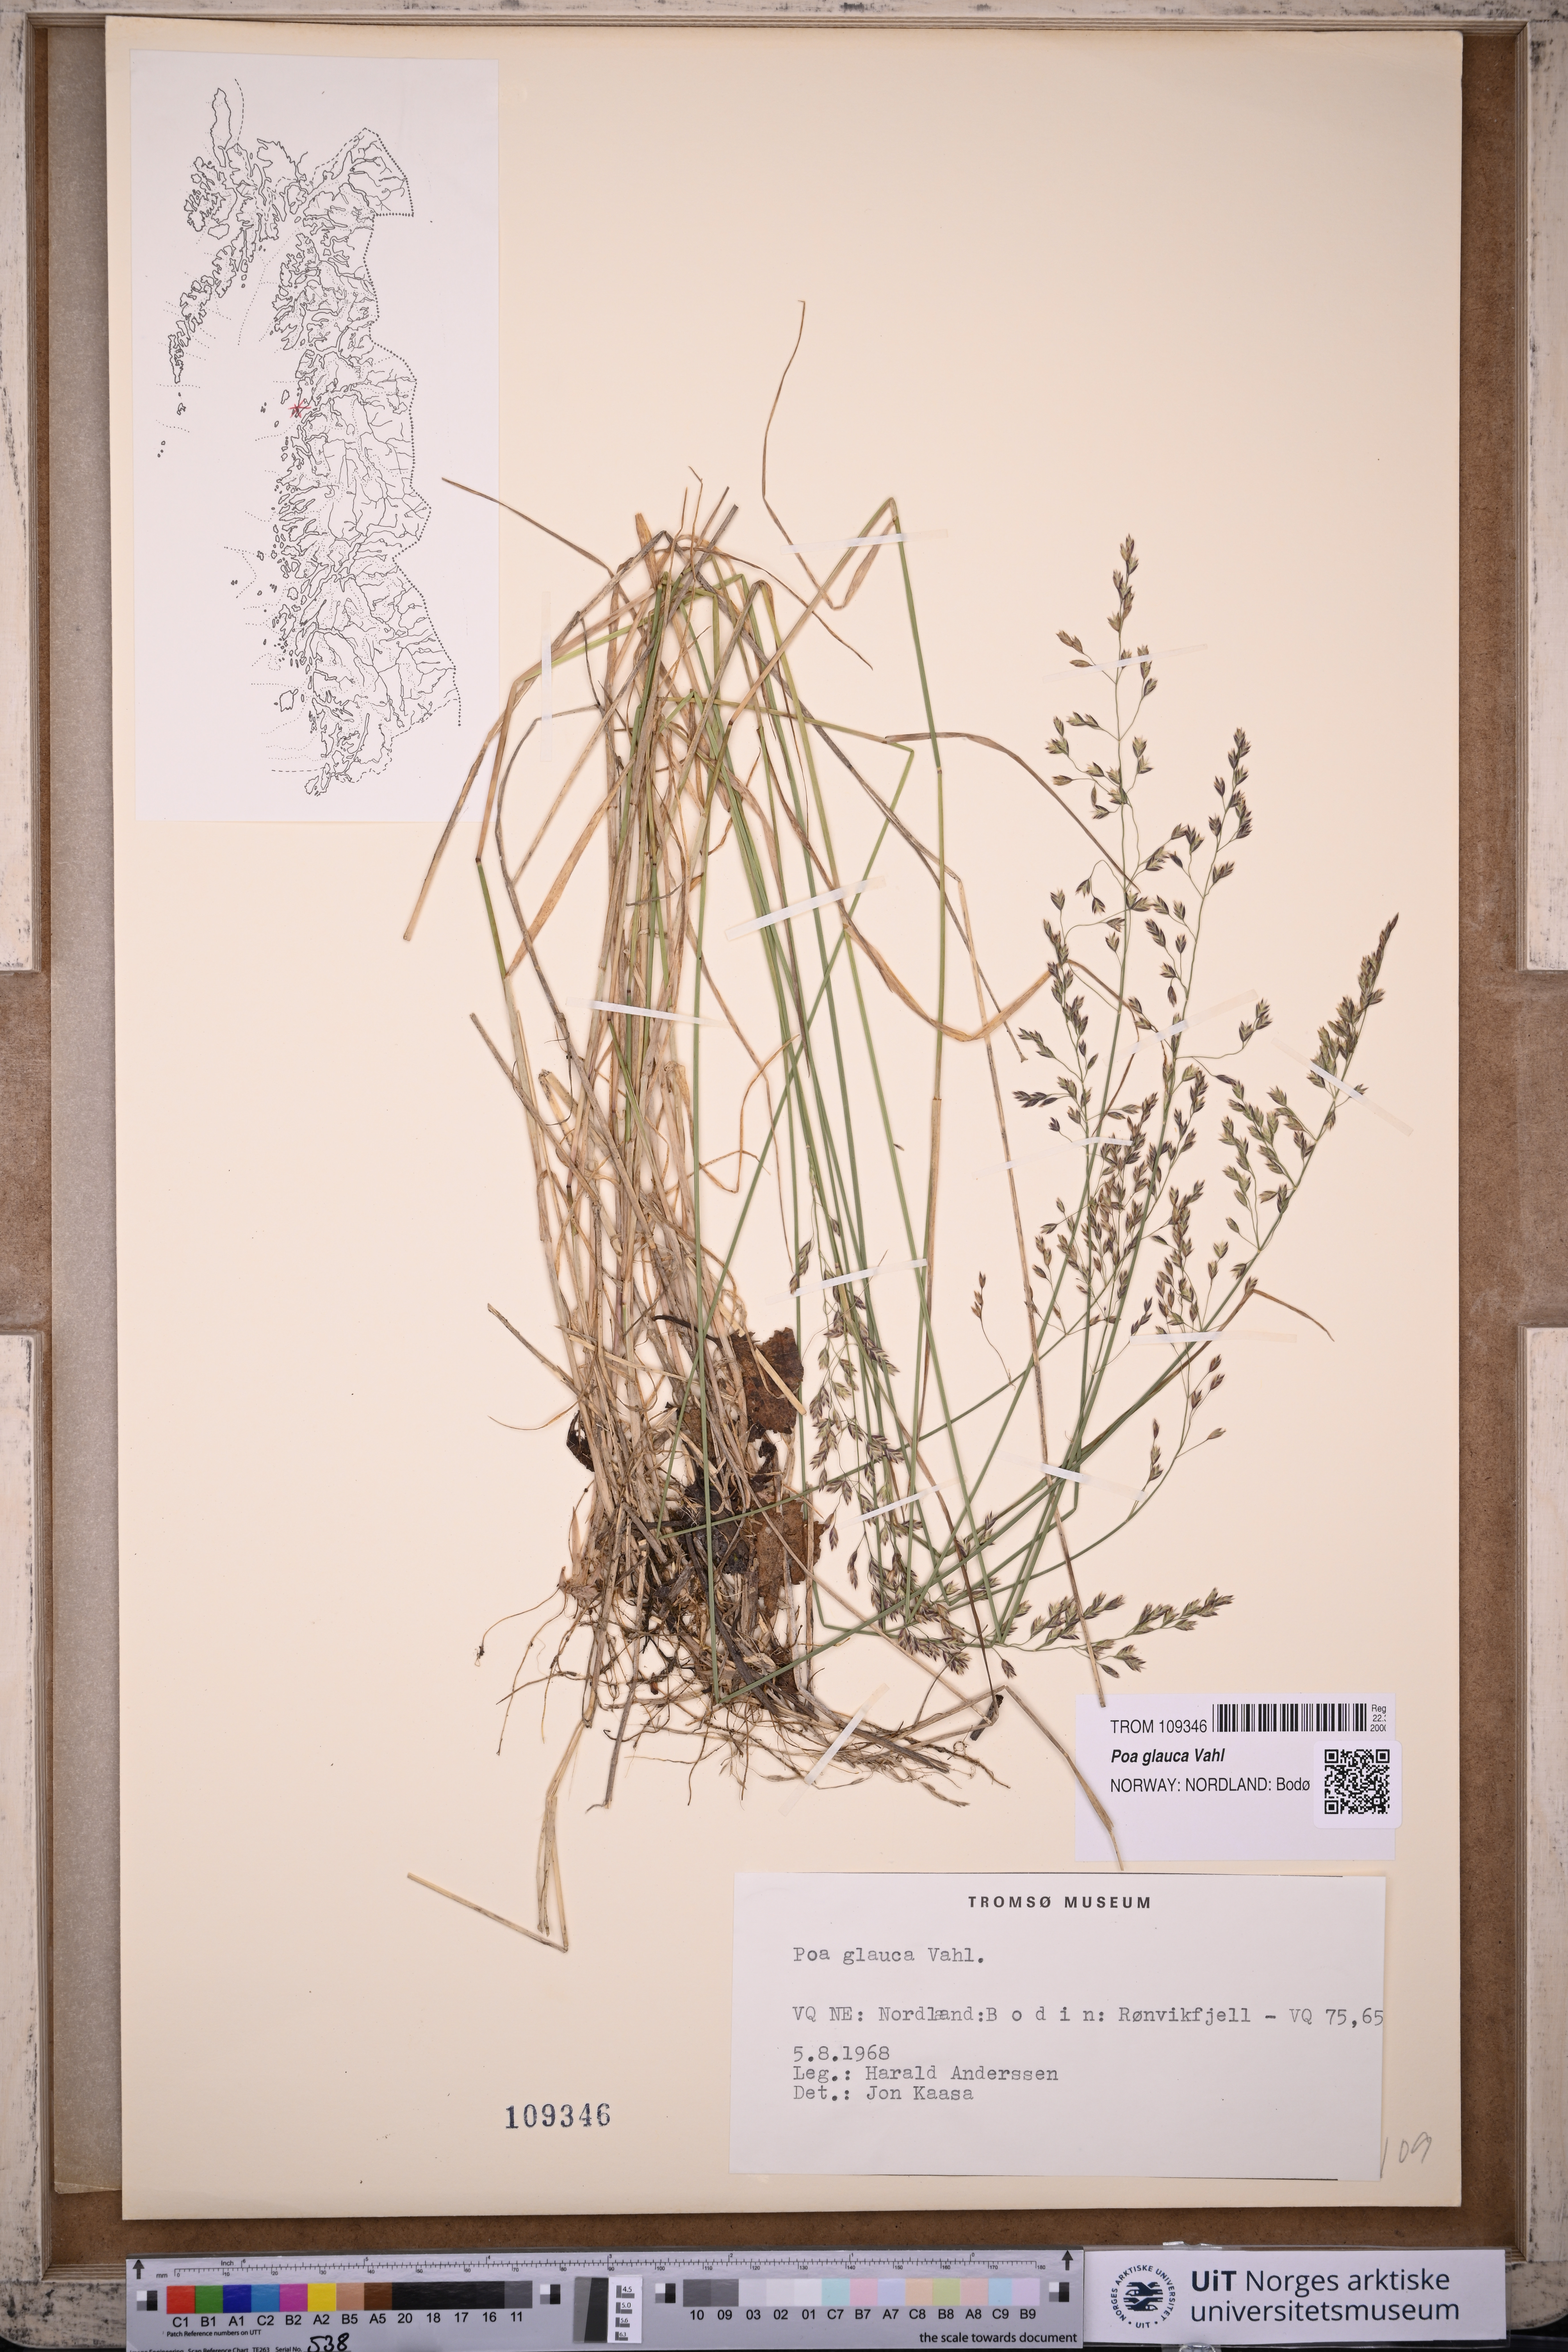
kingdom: Plantae
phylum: Tracheophyta
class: Liliopsida
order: Poales
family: Poaceae
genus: Poa
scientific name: Poa glauca
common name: Glaucous bluegrass
